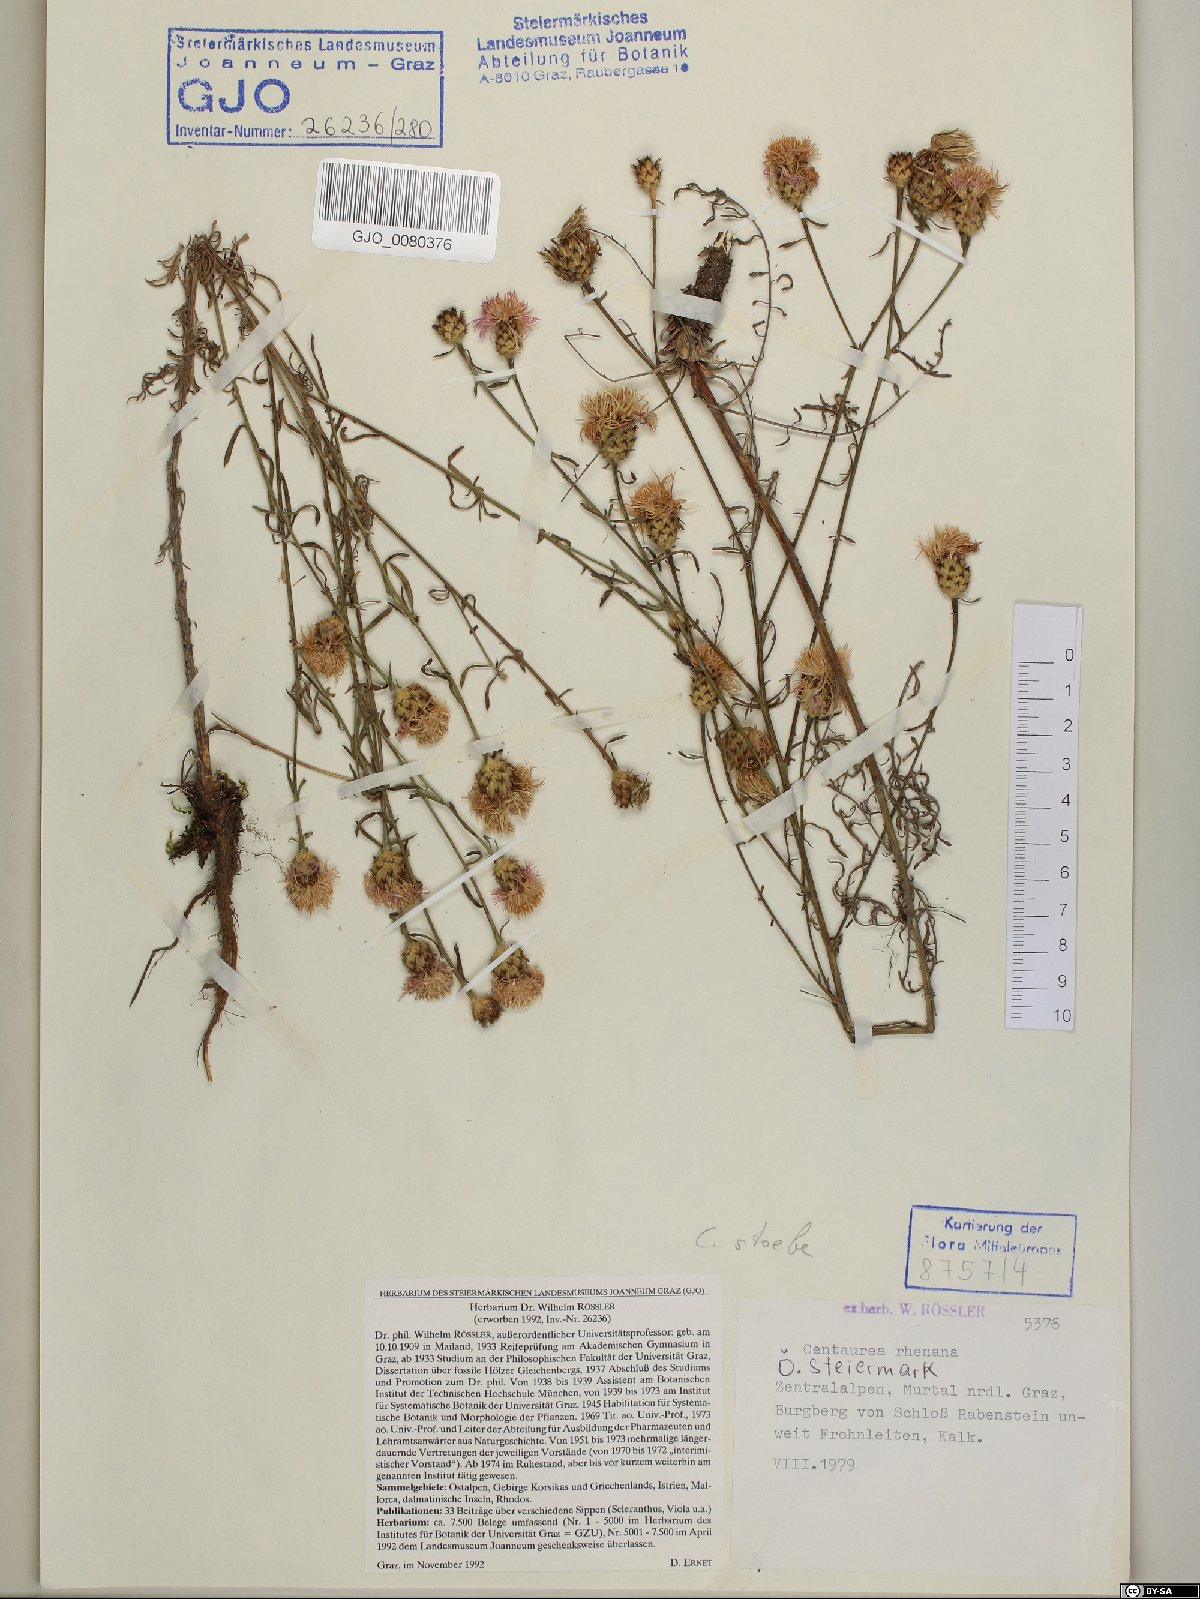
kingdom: Plantae
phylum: Tracheophyta
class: Magnoliopsida
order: Asterales
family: Asteraceae
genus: Centaurea
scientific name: Centaurea stoebe
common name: Spotted knapweed
